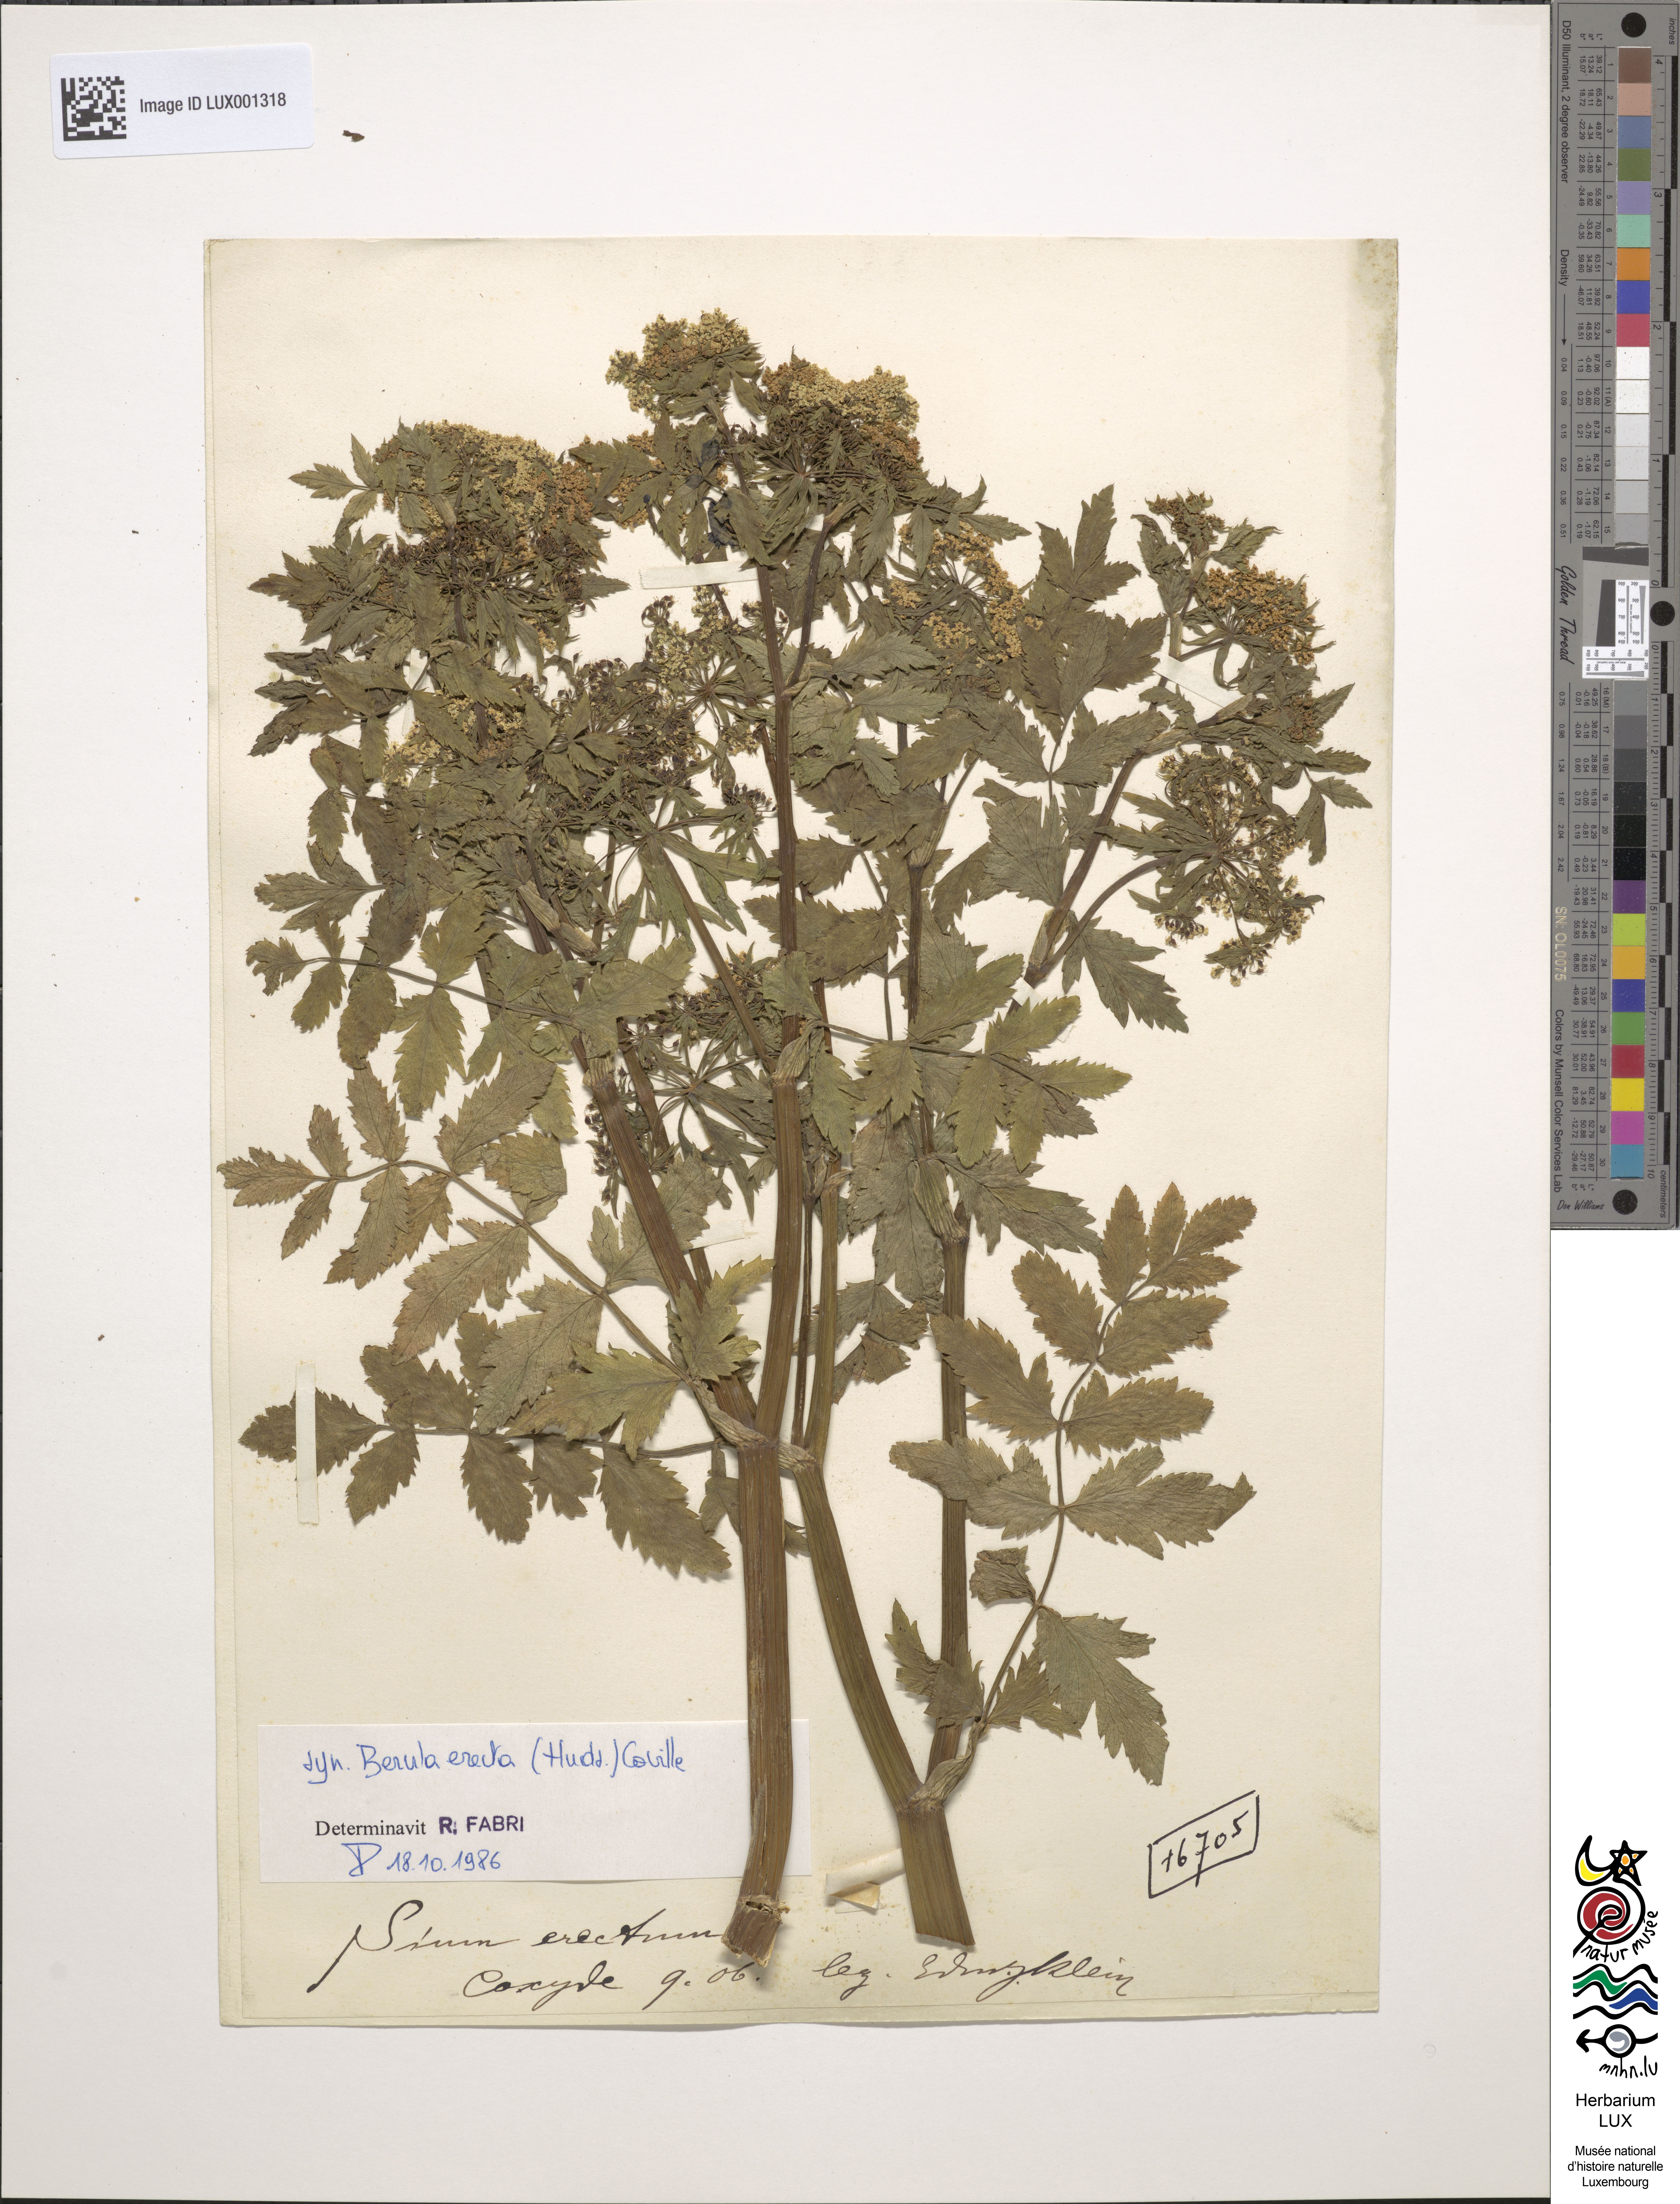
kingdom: Plantae
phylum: Tracheophyta
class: Magnoliopsida
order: Apiales
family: Apiaceae
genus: Berula
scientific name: Berula erecta
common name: Lesser water-parsnip
